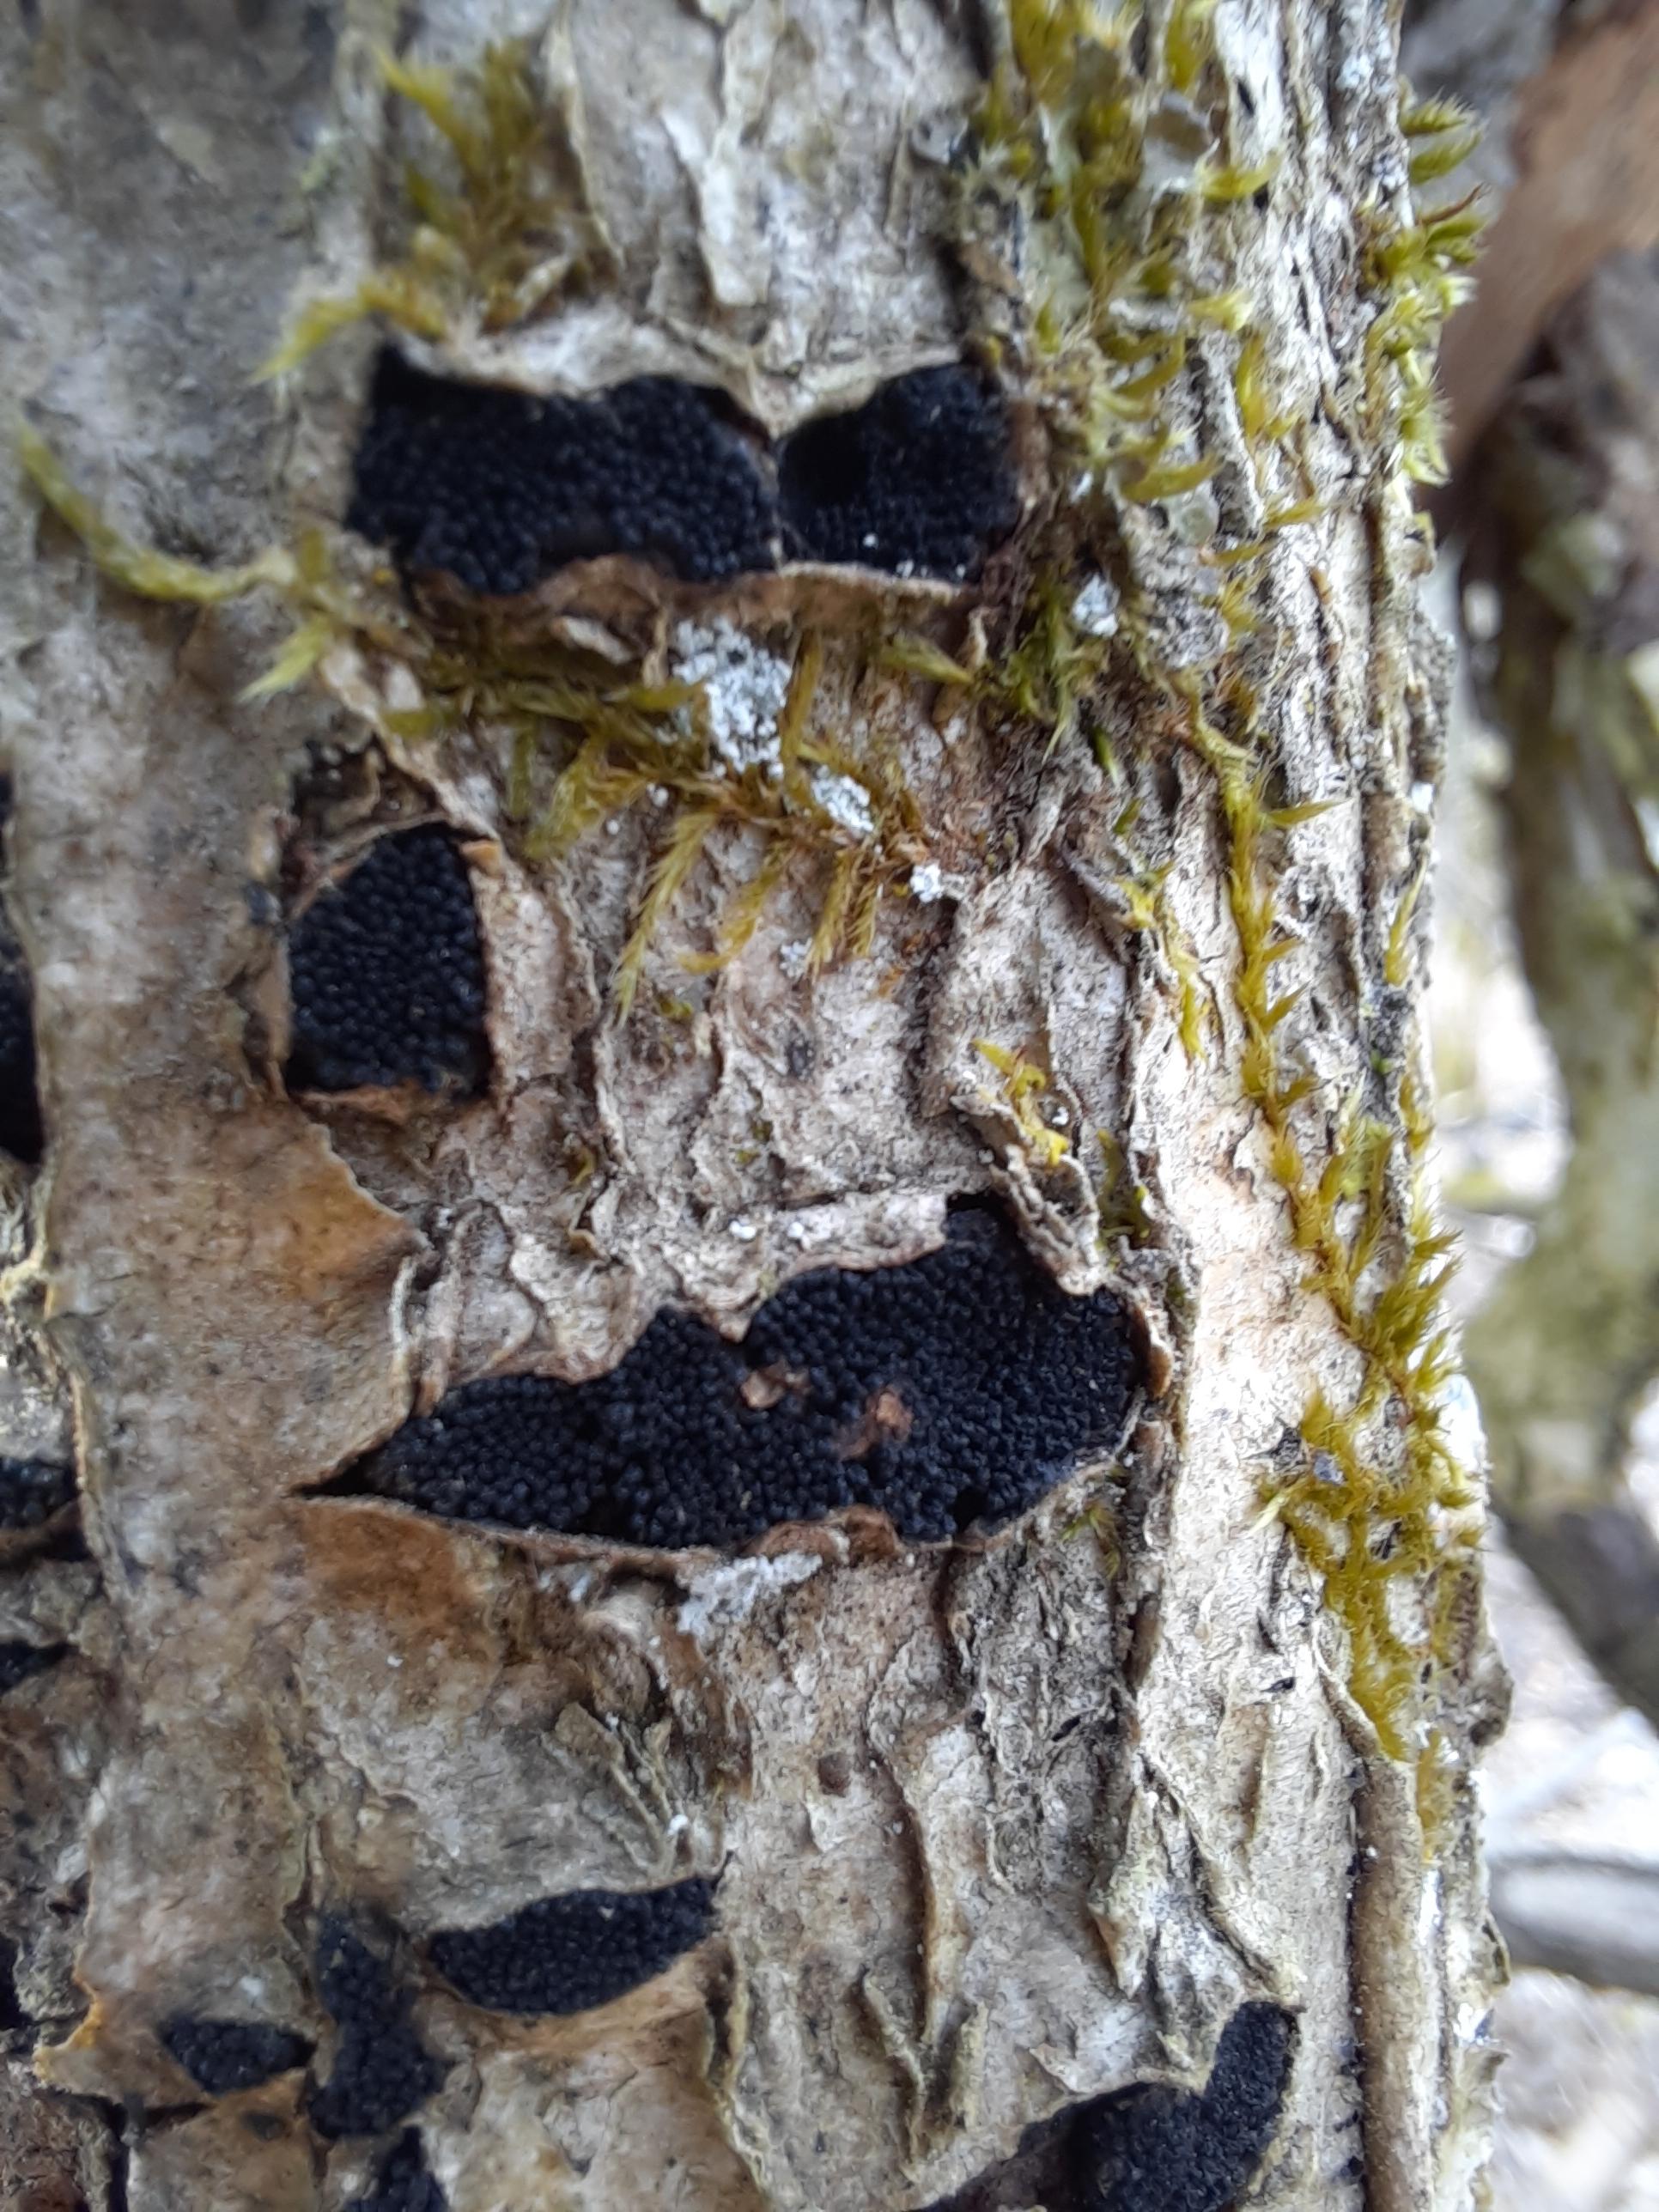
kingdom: Fungi
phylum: Ascomycota
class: Sordariomycetes
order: Xylariales
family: Diatrypaceae
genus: Eutypella
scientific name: Eutypella sorbi
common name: rønne-kulskorpe
